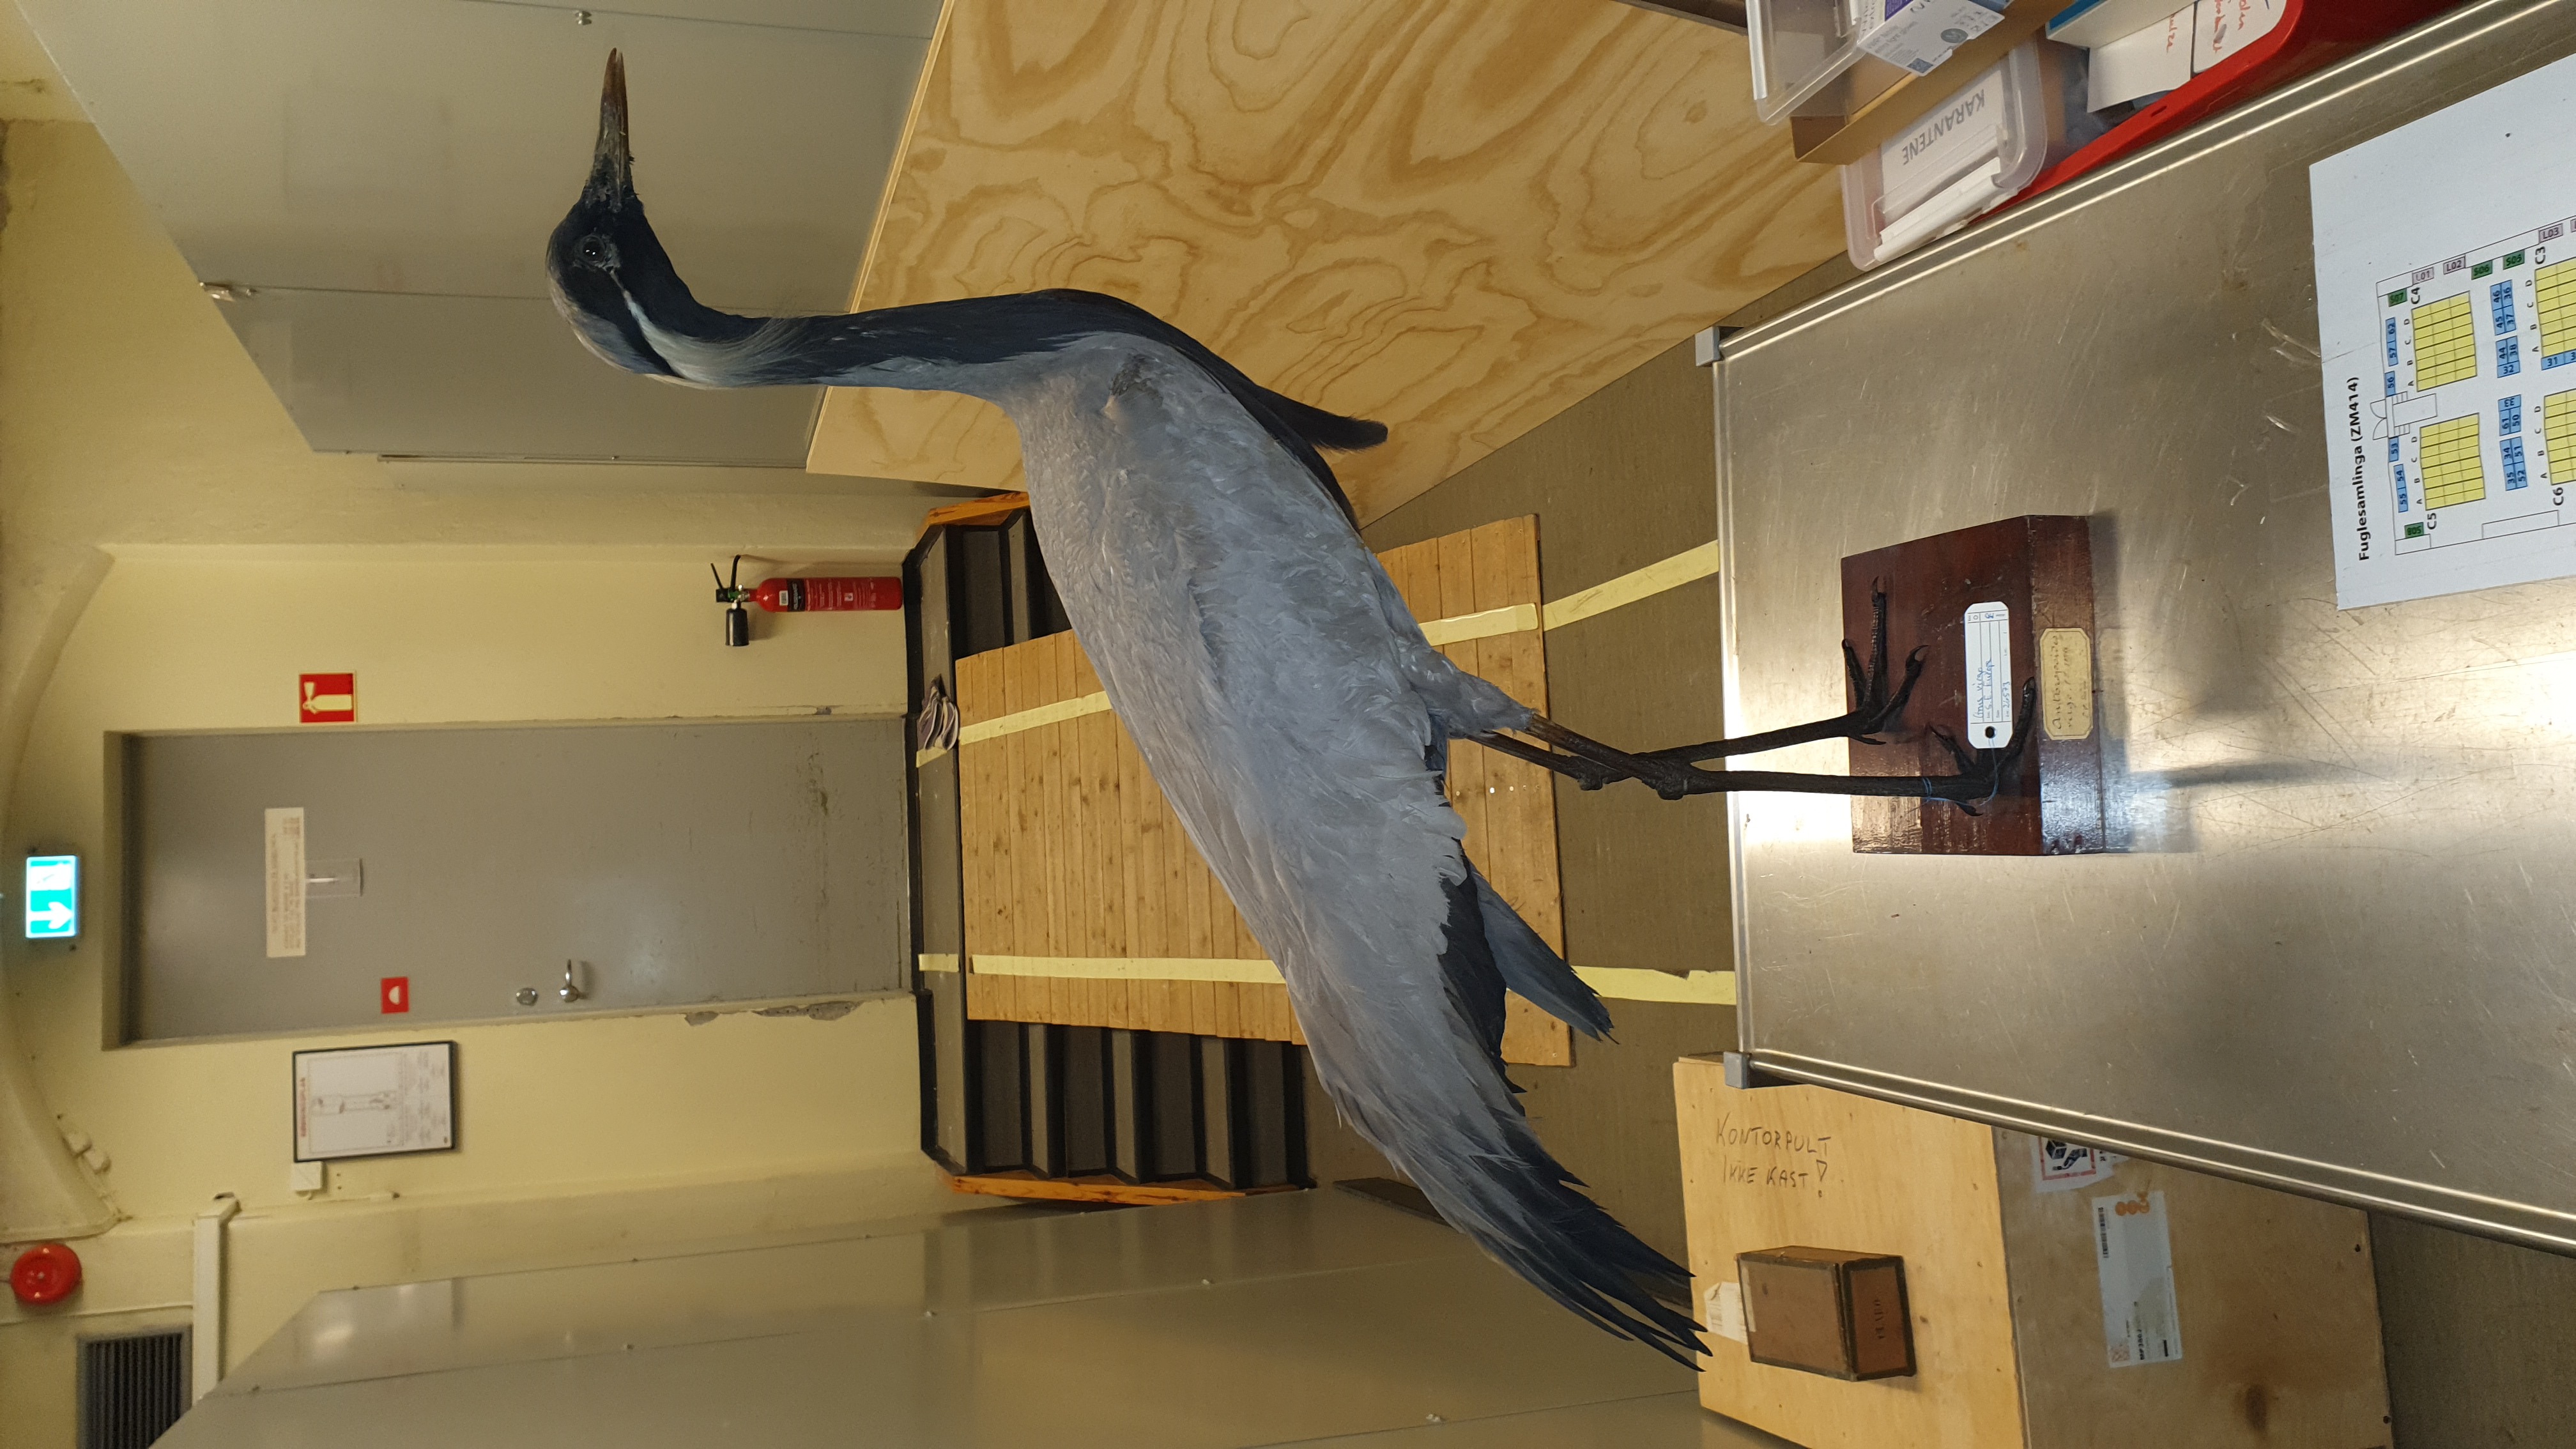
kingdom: Animalia
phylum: Chordata
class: Aves
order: Gruiformes
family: Gruidae
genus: Anthropoides
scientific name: Anthropoides virgo
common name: Demoiselle crane
